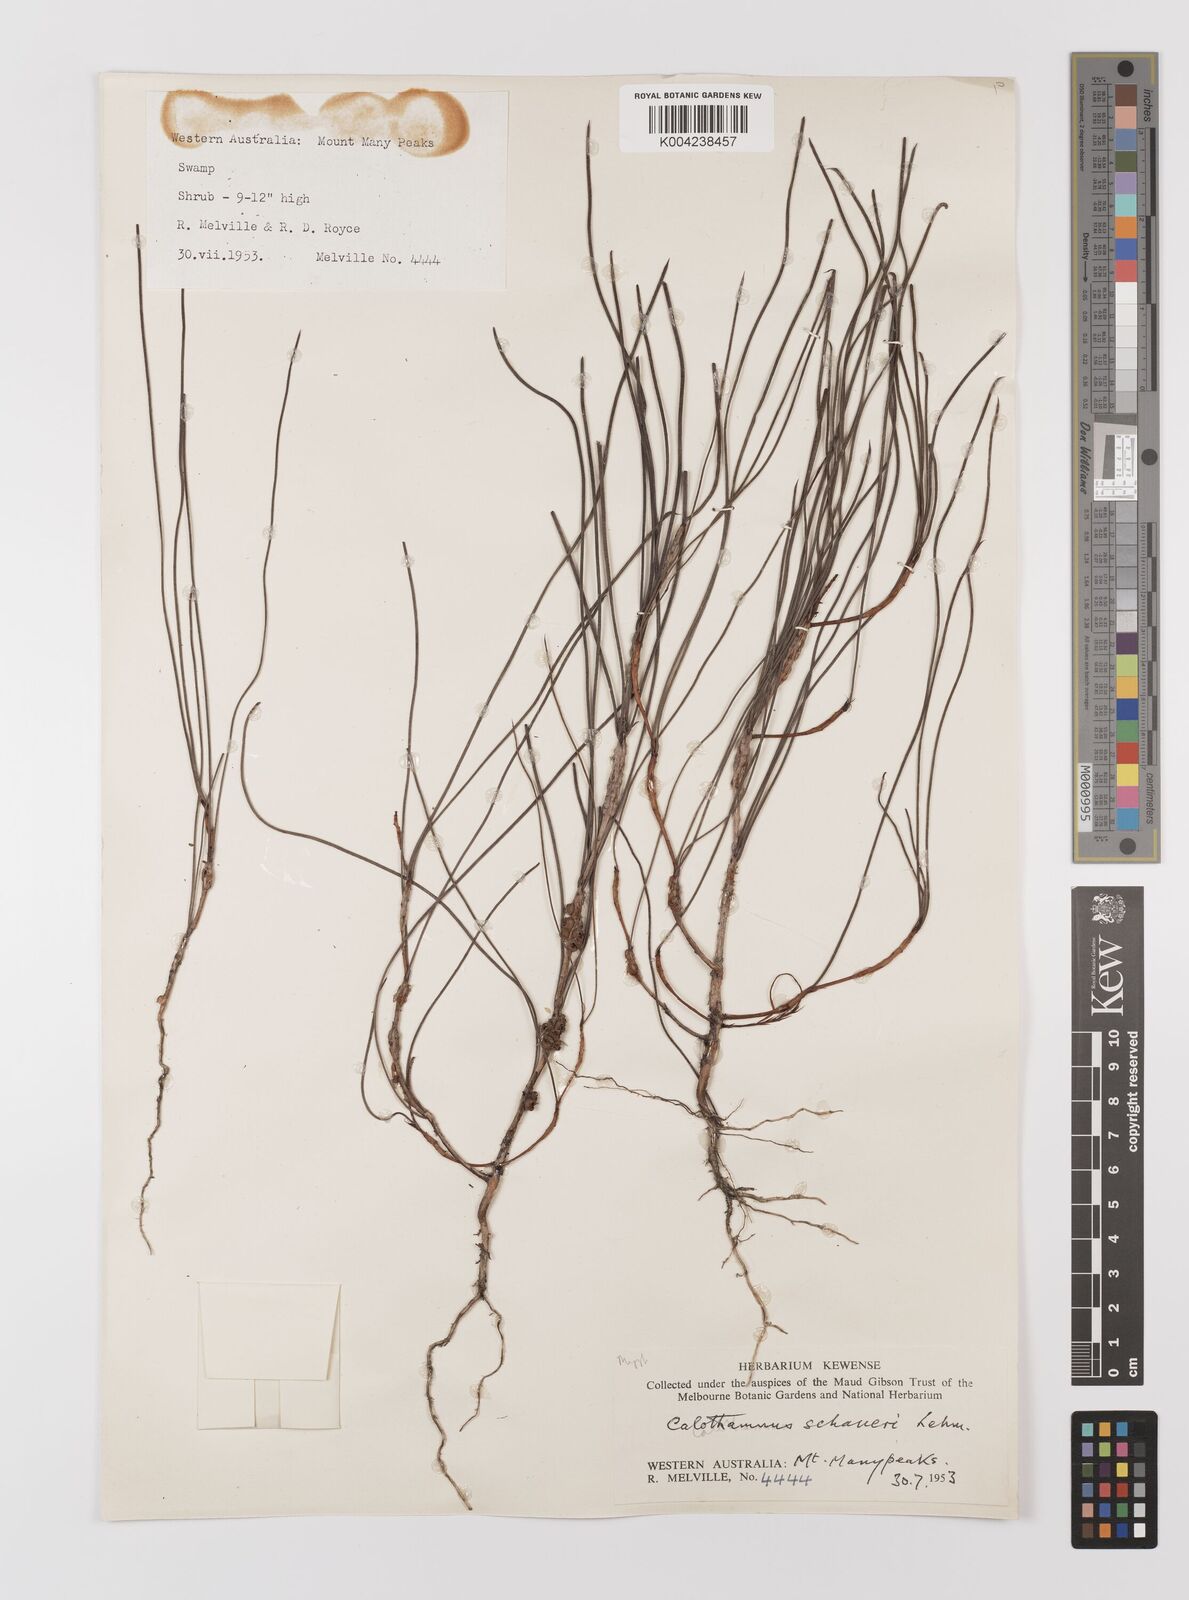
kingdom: Plantae
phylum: Tracheophyta
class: Magnoliopsida
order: Myrtales
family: Myrtaceae
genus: Melaleuca
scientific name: Melaleuca schaueri
